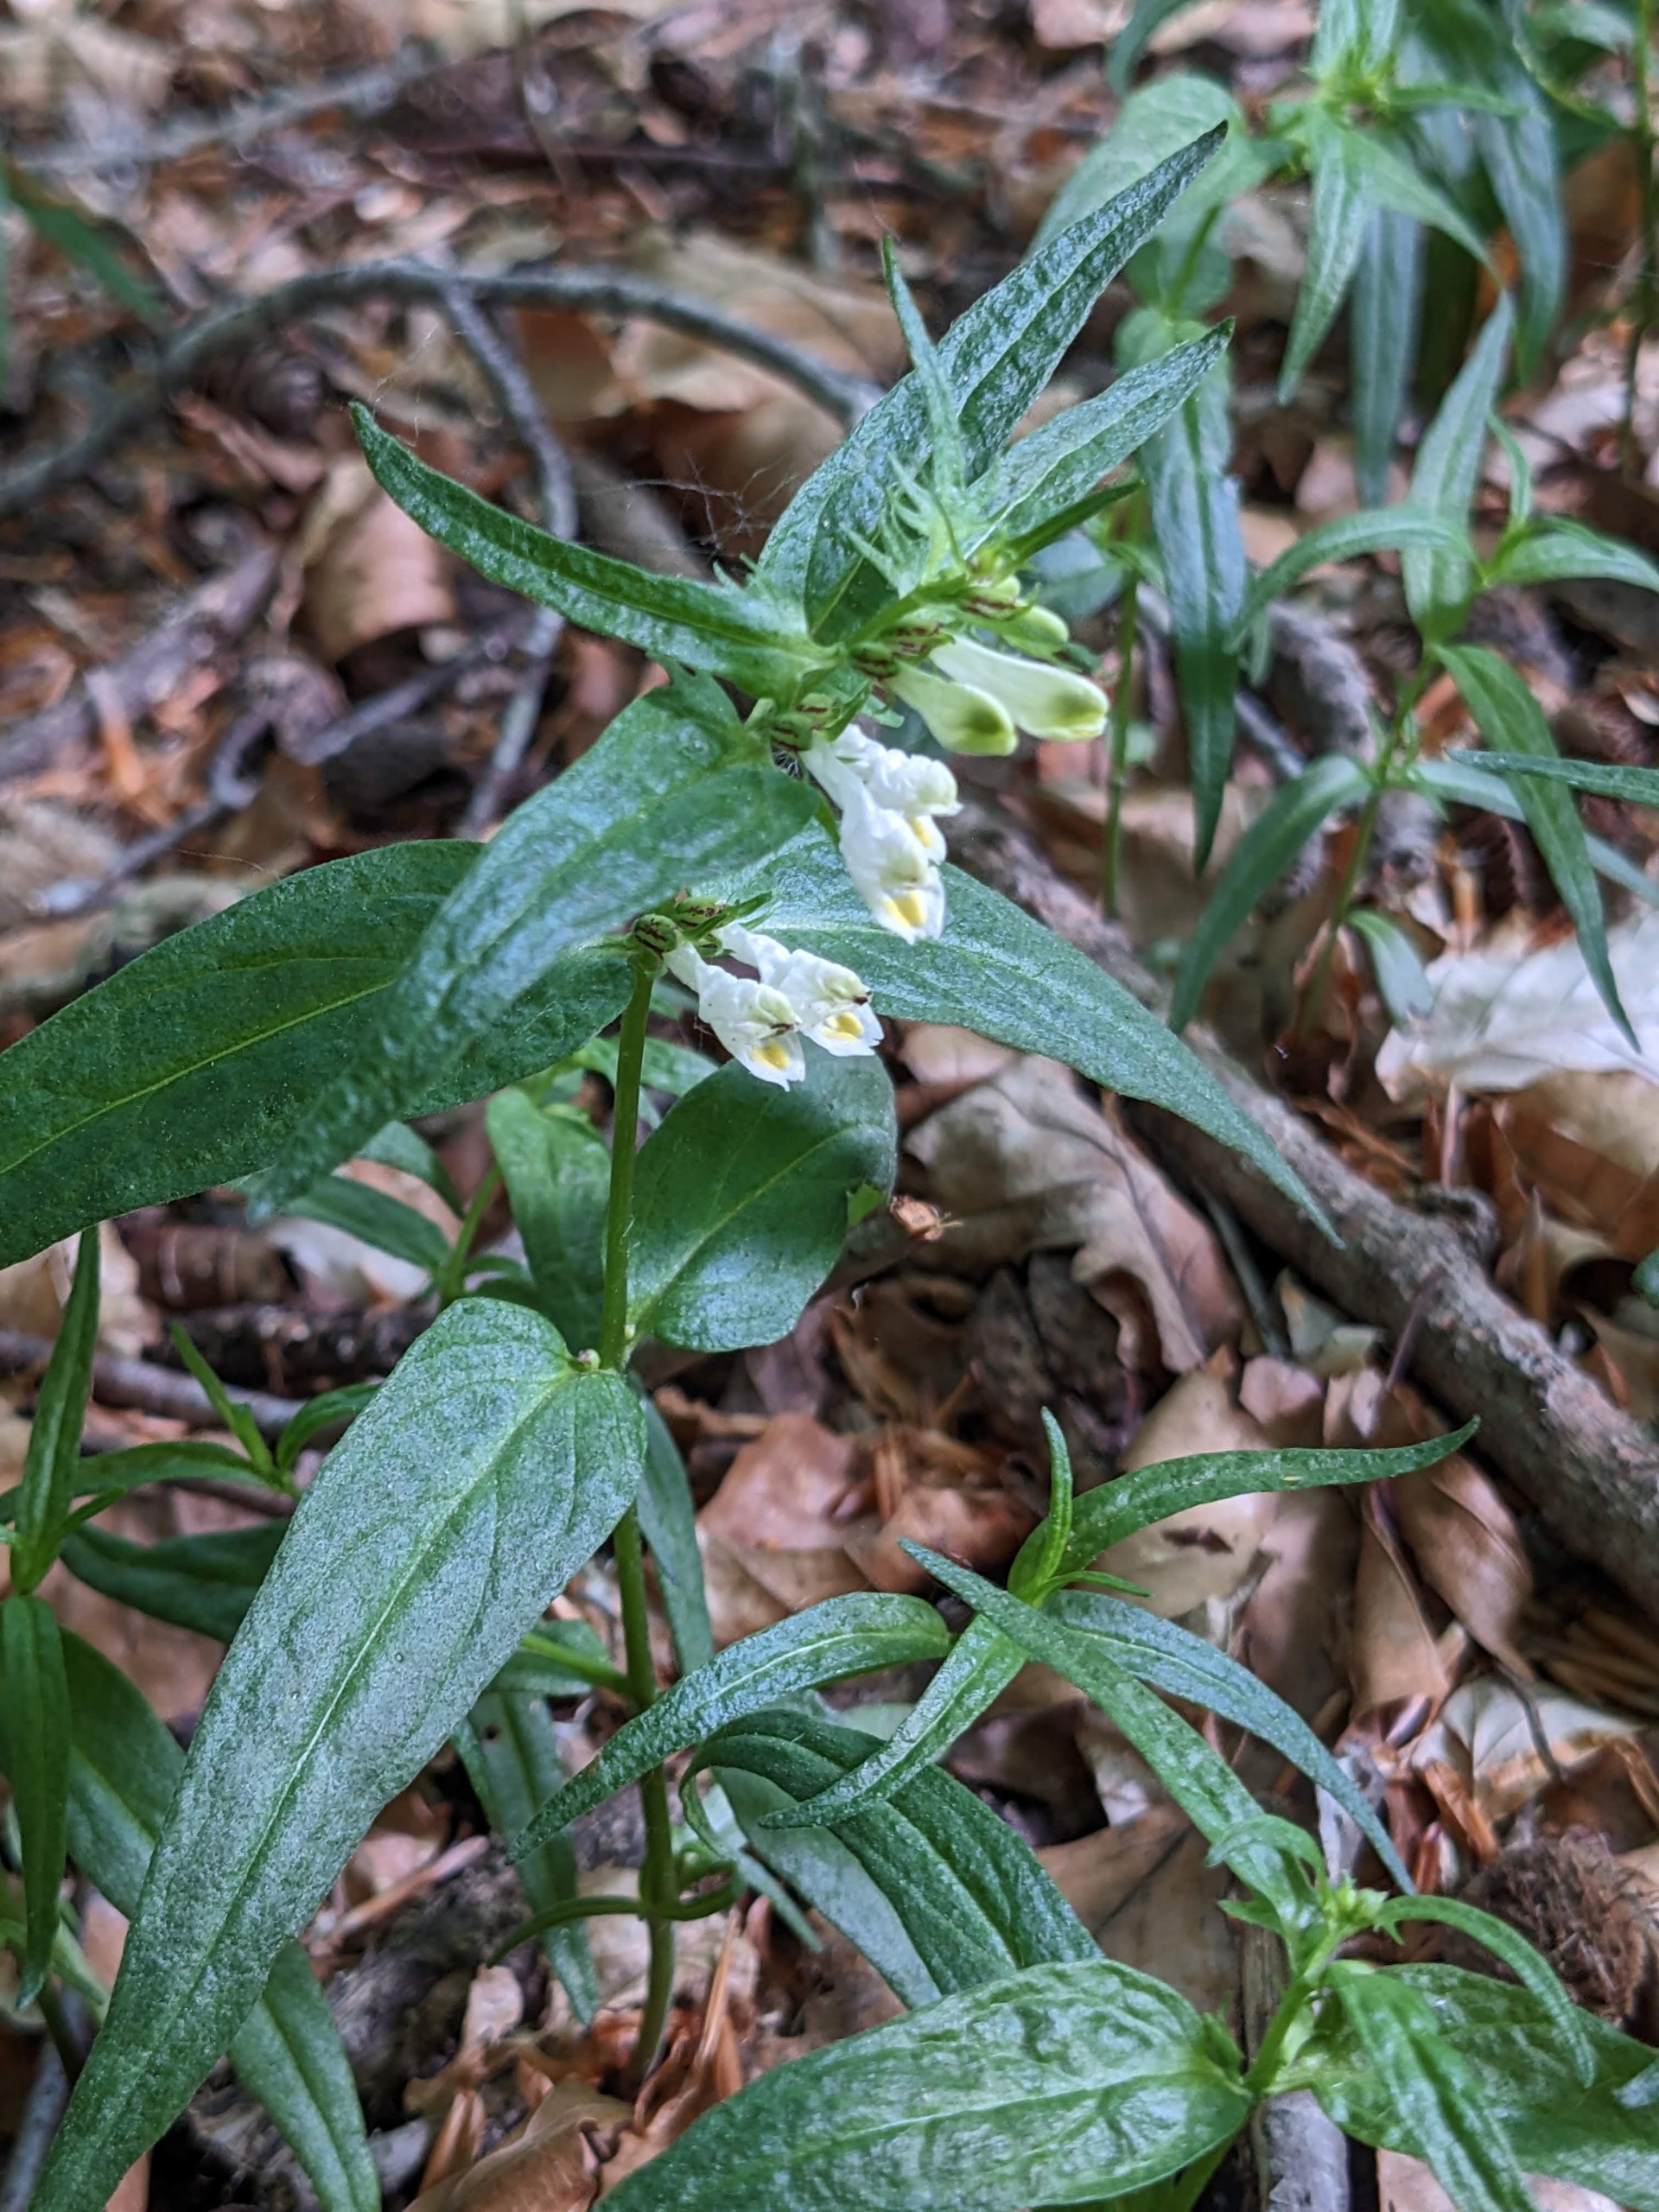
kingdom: Plantae
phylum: Tracheophyta
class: Magnoliopsida
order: Lamiales
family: Orobanchaceae
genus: Melampyrum
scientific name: Melampyrum pratense
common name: Almindelig kohvede
